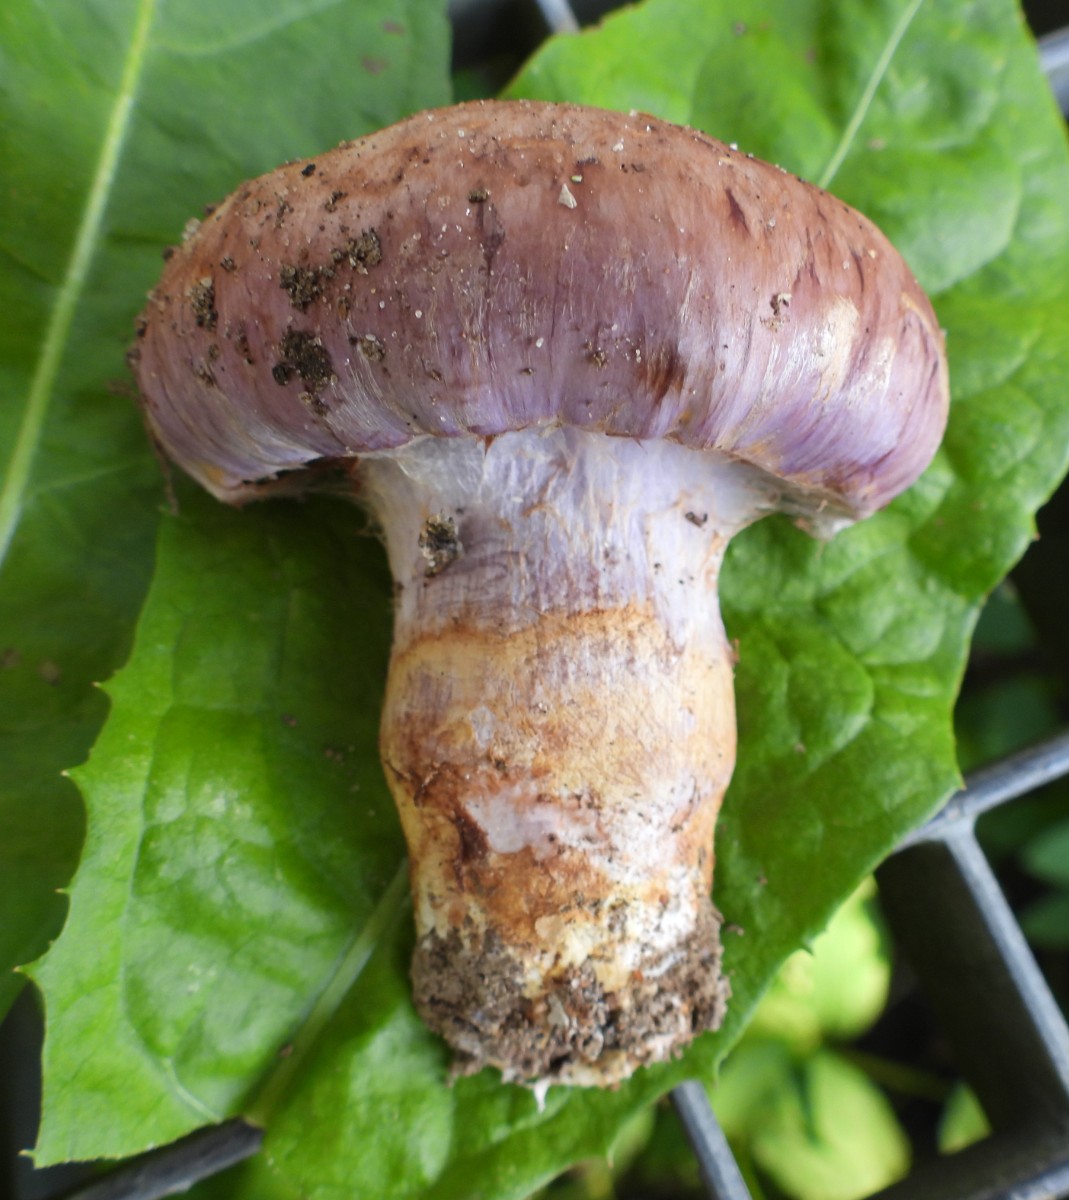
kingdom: Fungi
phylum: Basidiomycota
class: Agaricomycetes
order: Agaricales
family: Cortinariaceae
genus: Phlegmacium
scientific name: Phlegmacium
